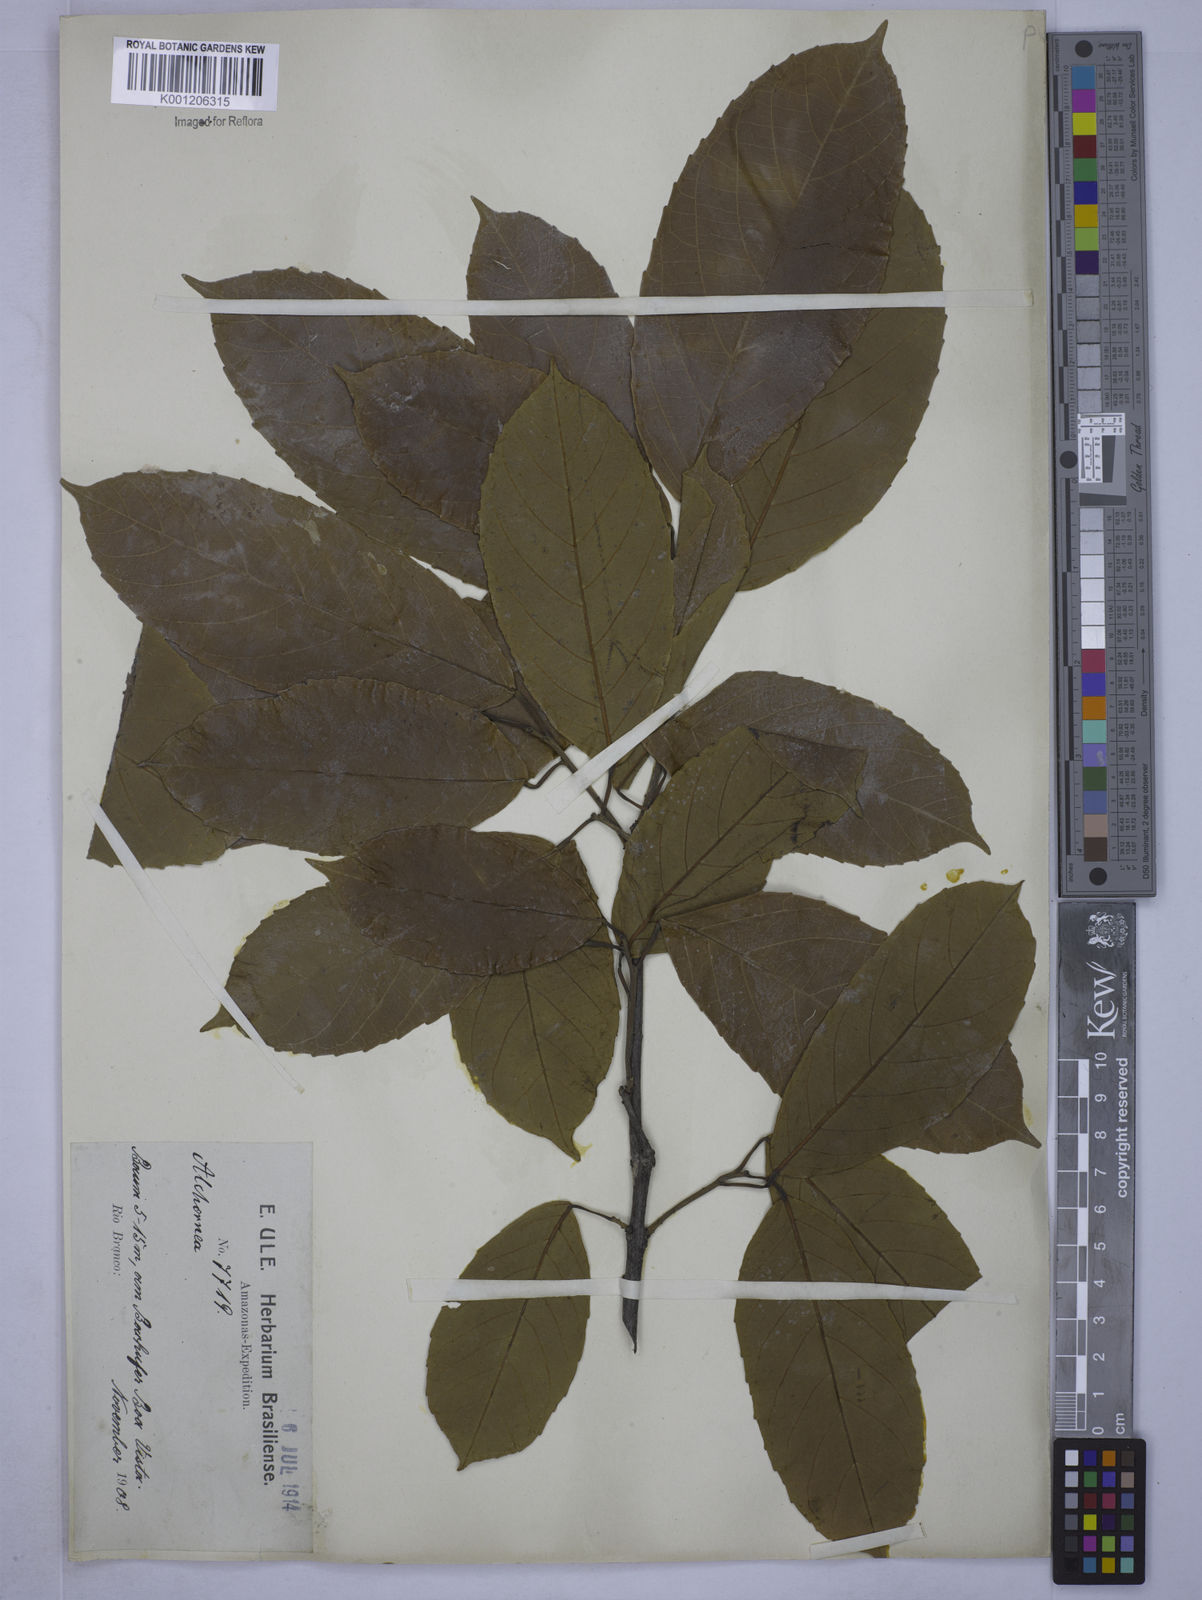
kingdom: Plantae
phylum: Tracheophyta
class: Magnoliopsida
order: Malpighiales
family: Euphorbiaceae
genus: Alchornea
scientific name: Alchornea discolor
